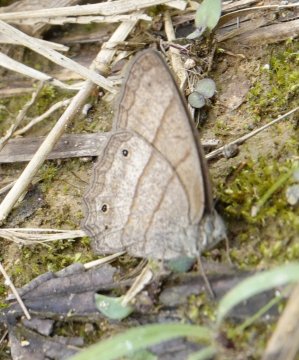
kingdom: Animalia
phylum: Arthropoda
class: Insecta
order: Lepidoptera
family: Nymphalidae
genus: Yphthimoides
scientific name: Yphthimoides renata
